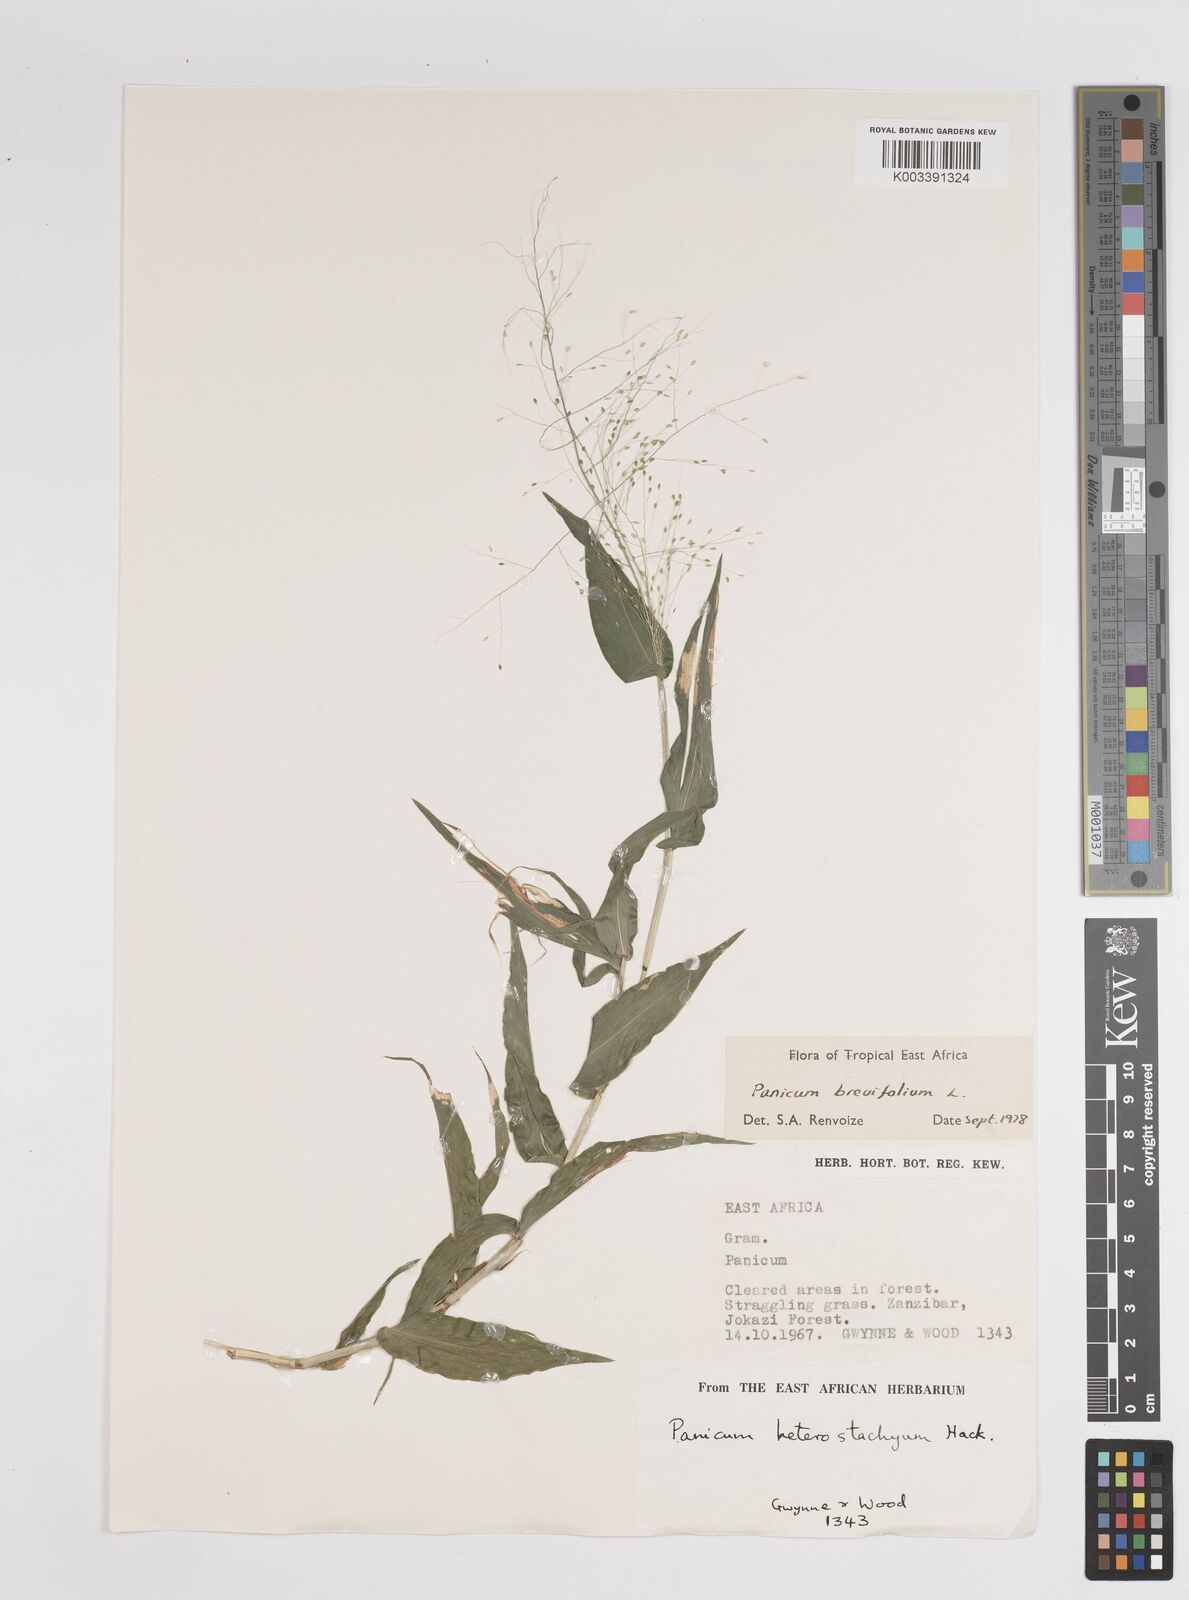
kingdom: Plantae
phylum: Tracheophyta
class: Liliopsida
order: Poales
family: Poaceae
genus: Panicum
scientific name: Panicum brevifolium
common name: Shortleaf panic grass
